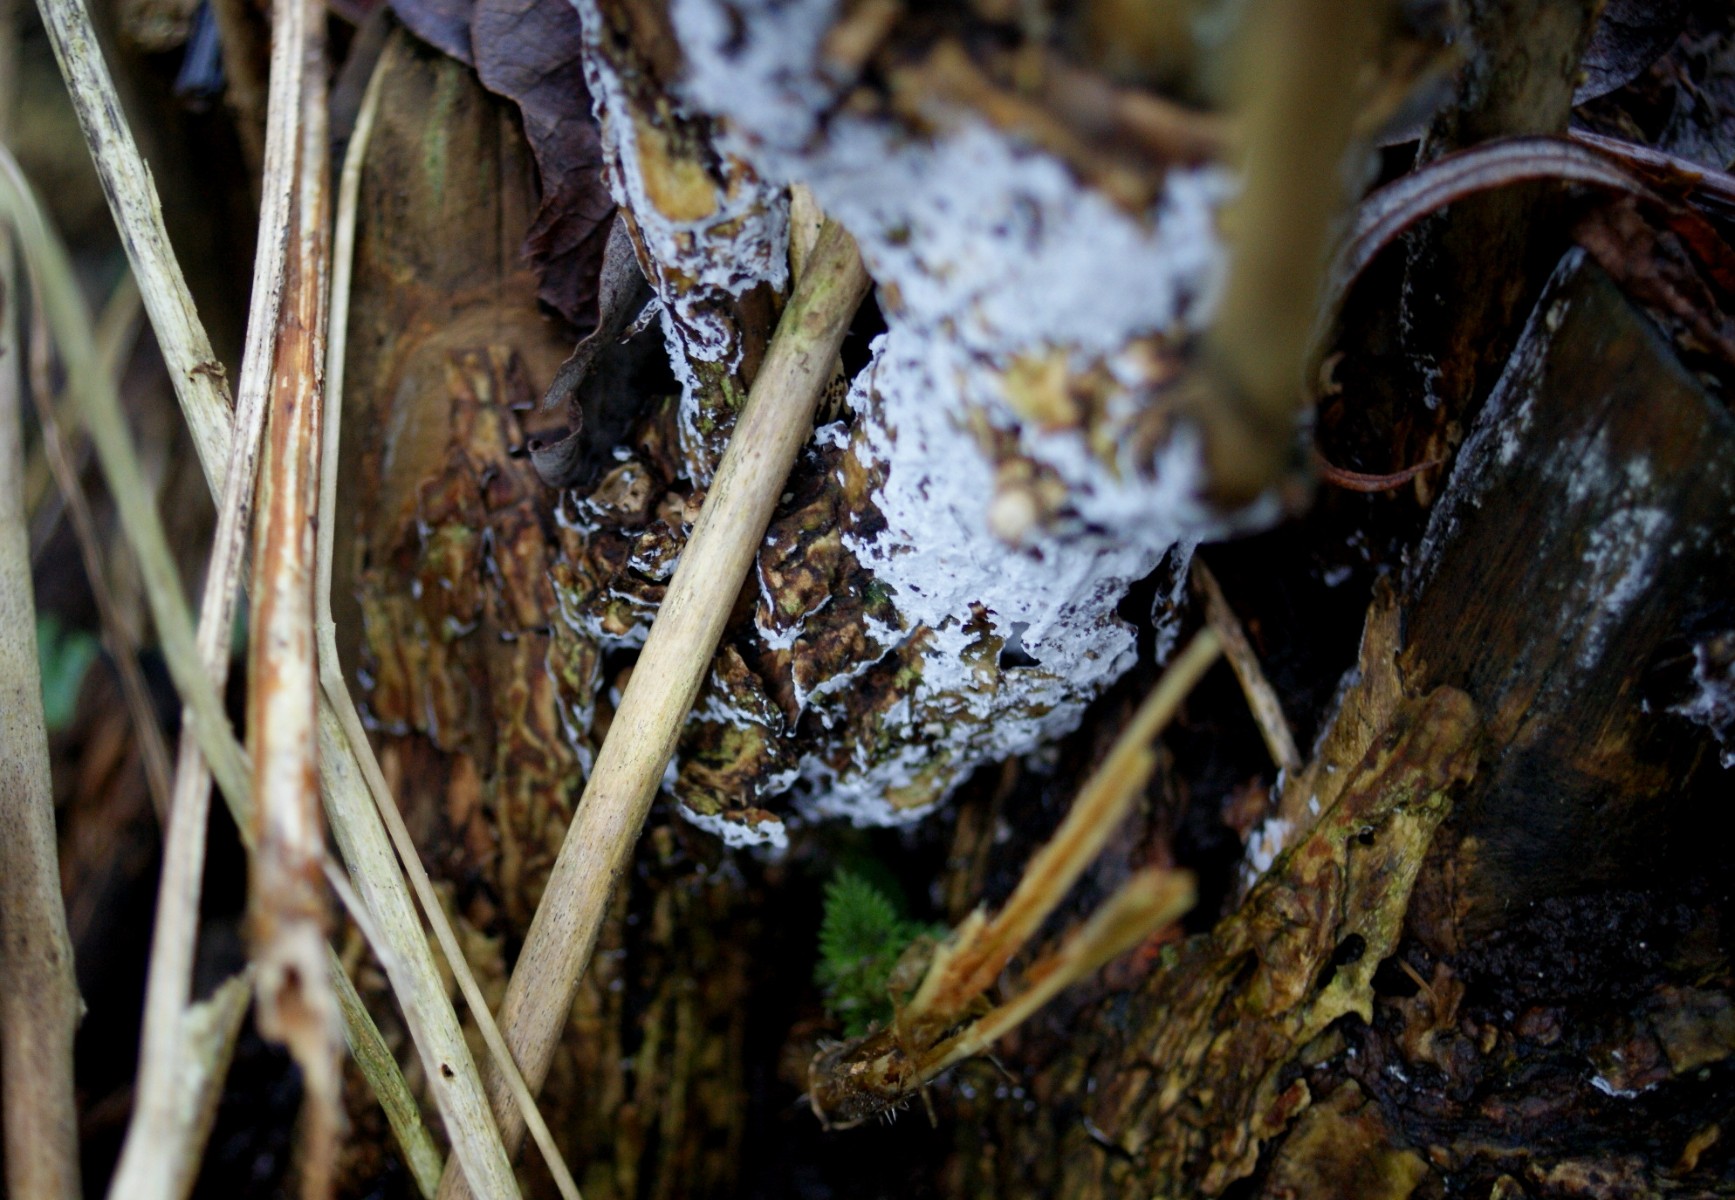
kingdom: Fungi
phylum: Basidiomycota
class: Agaricomycetes
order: Corticiales
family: Corticiaceae
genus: Lyomyces
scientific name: Lyomyces sambuci
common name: almindelig hyldehinde
